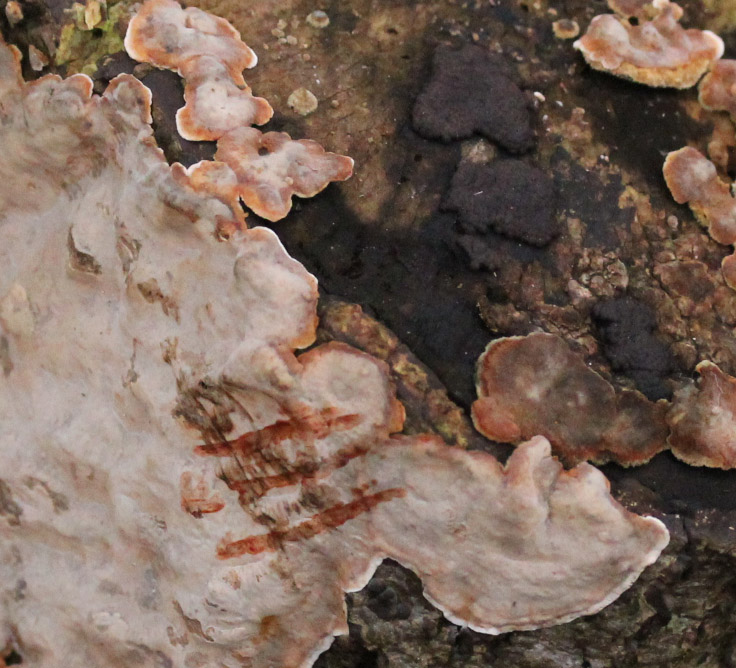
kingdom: Fungi
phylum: Basidiomycota
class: Agaricomycetes
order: Russulales
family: Stereaceae
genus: Stereum
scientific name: Stereum rugosum
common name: rynket lædersvamp
